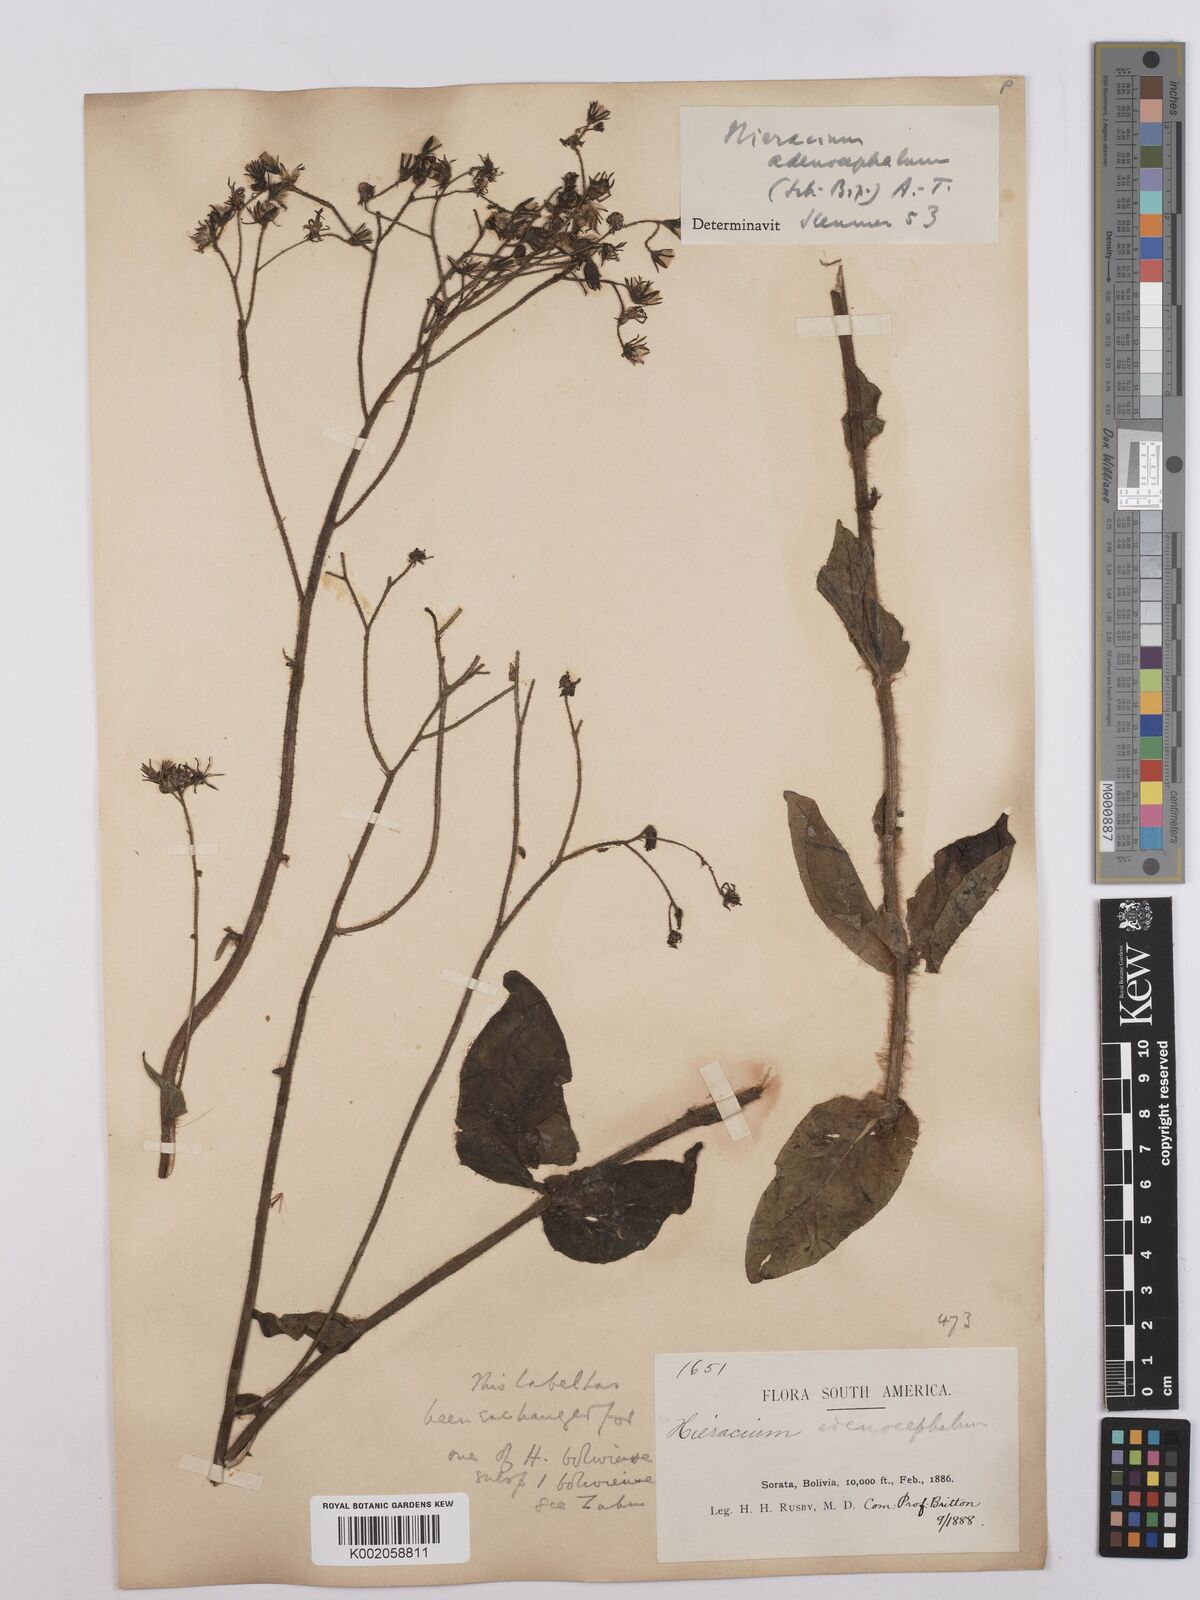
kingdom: Plantae
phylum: Tracheophyta
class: Magnoliopsida
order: Asterales
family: Asteraceae
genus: Hieracium
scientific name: Hieracium mandonii
